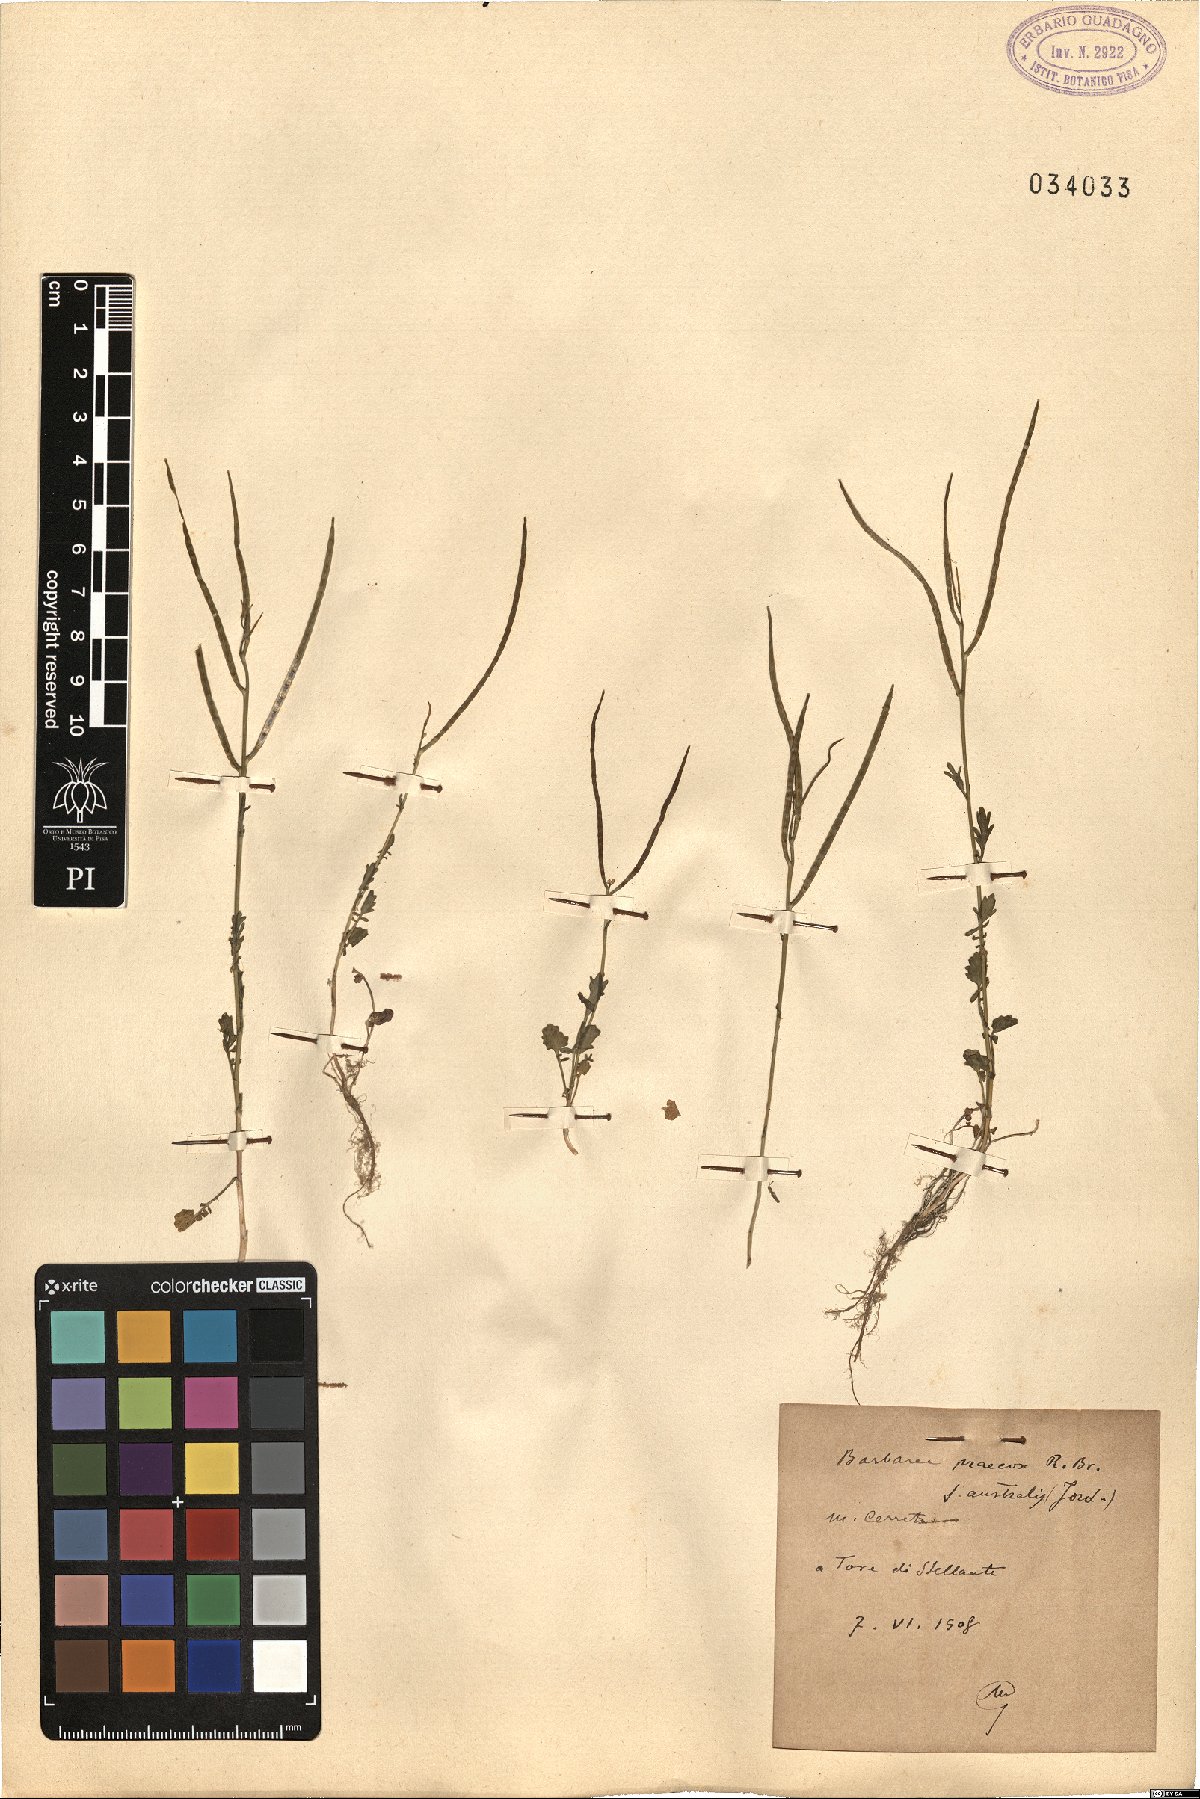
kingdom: Plantae
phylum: Tracheophyta
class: Magnoliopsida
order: Brassicales
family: Brassicaceae
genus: Barbarea
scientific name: Barbarea verna
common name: American cress
